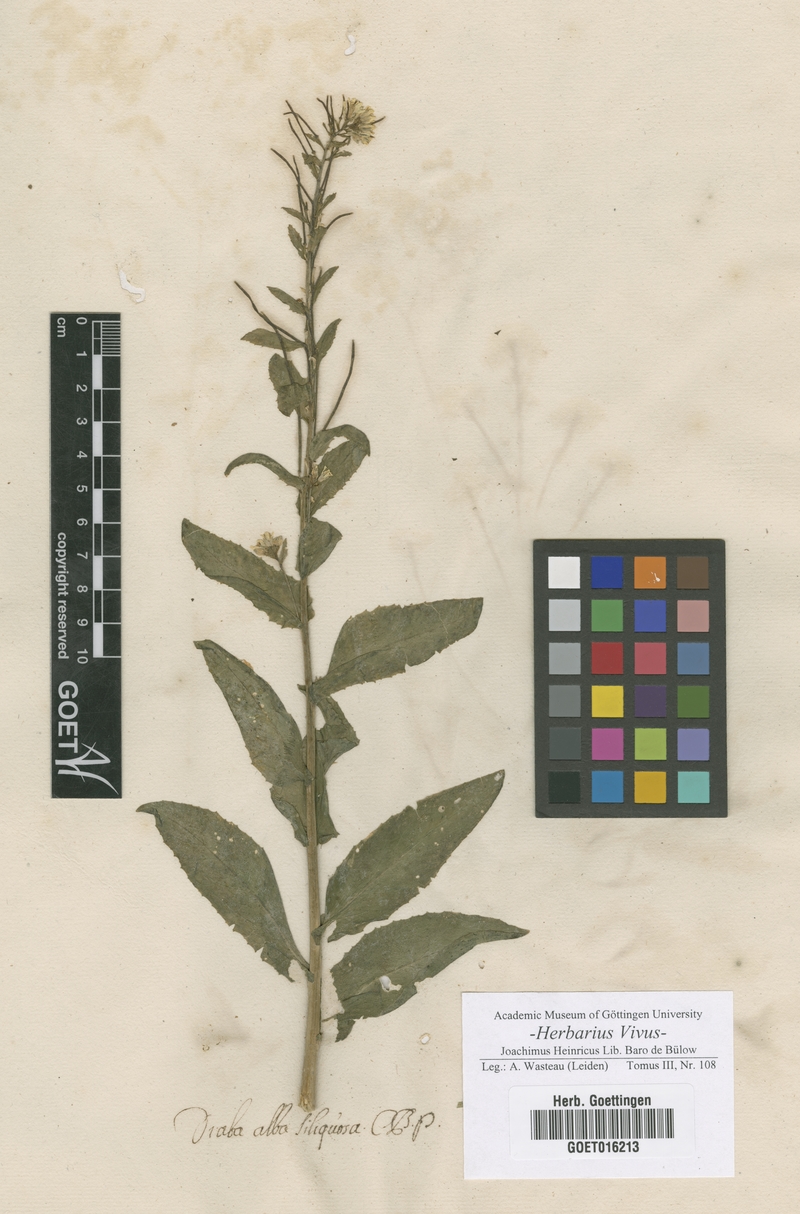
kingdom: Plantae
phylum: Tracheophyta
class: Magnoliopsida
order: Brassicales
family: Brassicaceae
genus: Arabis
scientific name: Arabis alpina
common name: Alpine rock-cress
